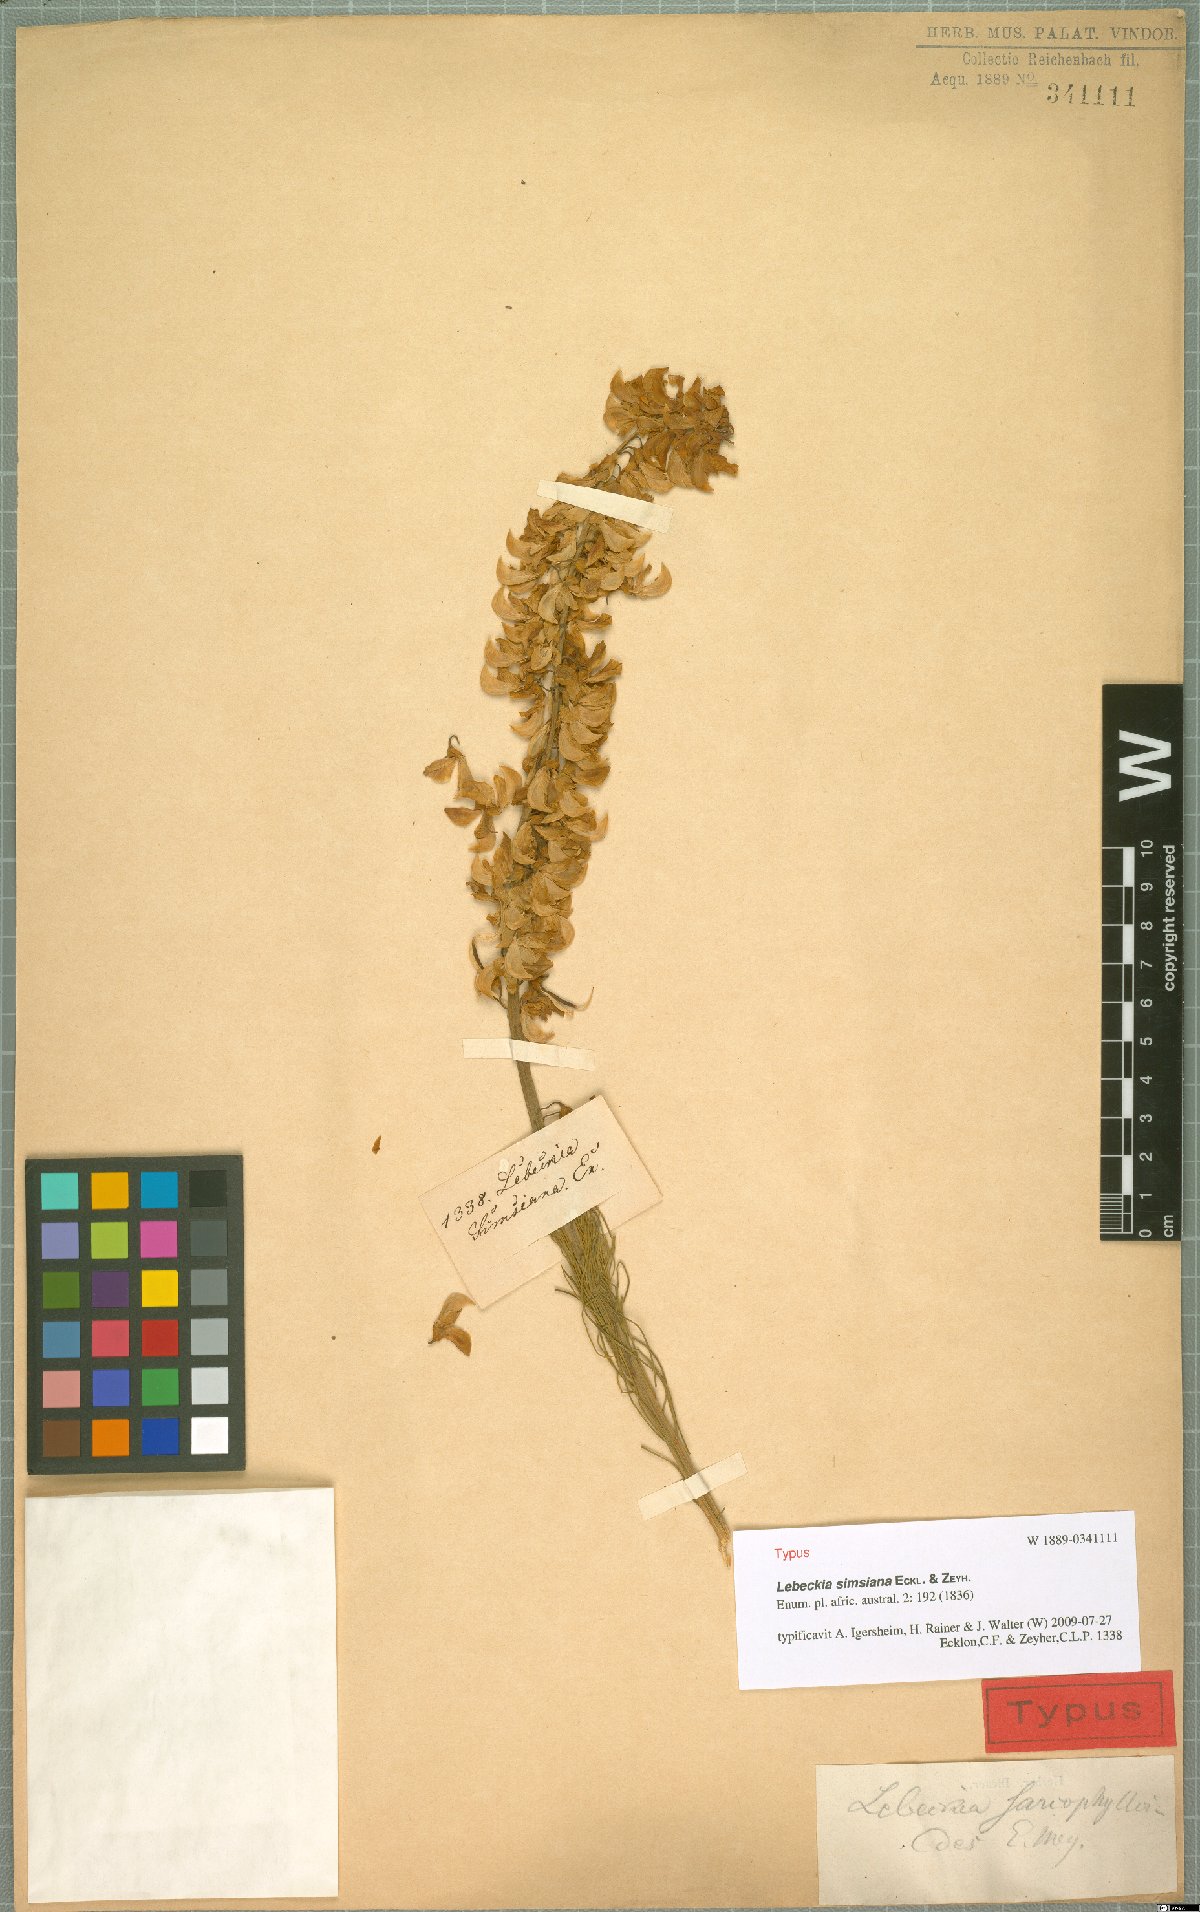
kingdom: Plantae
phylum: Tracheophyta
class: Magnoliopsida
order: Fabales
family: Fabaceae
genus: Lebeckia
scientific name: Lebeckia sepiaria
